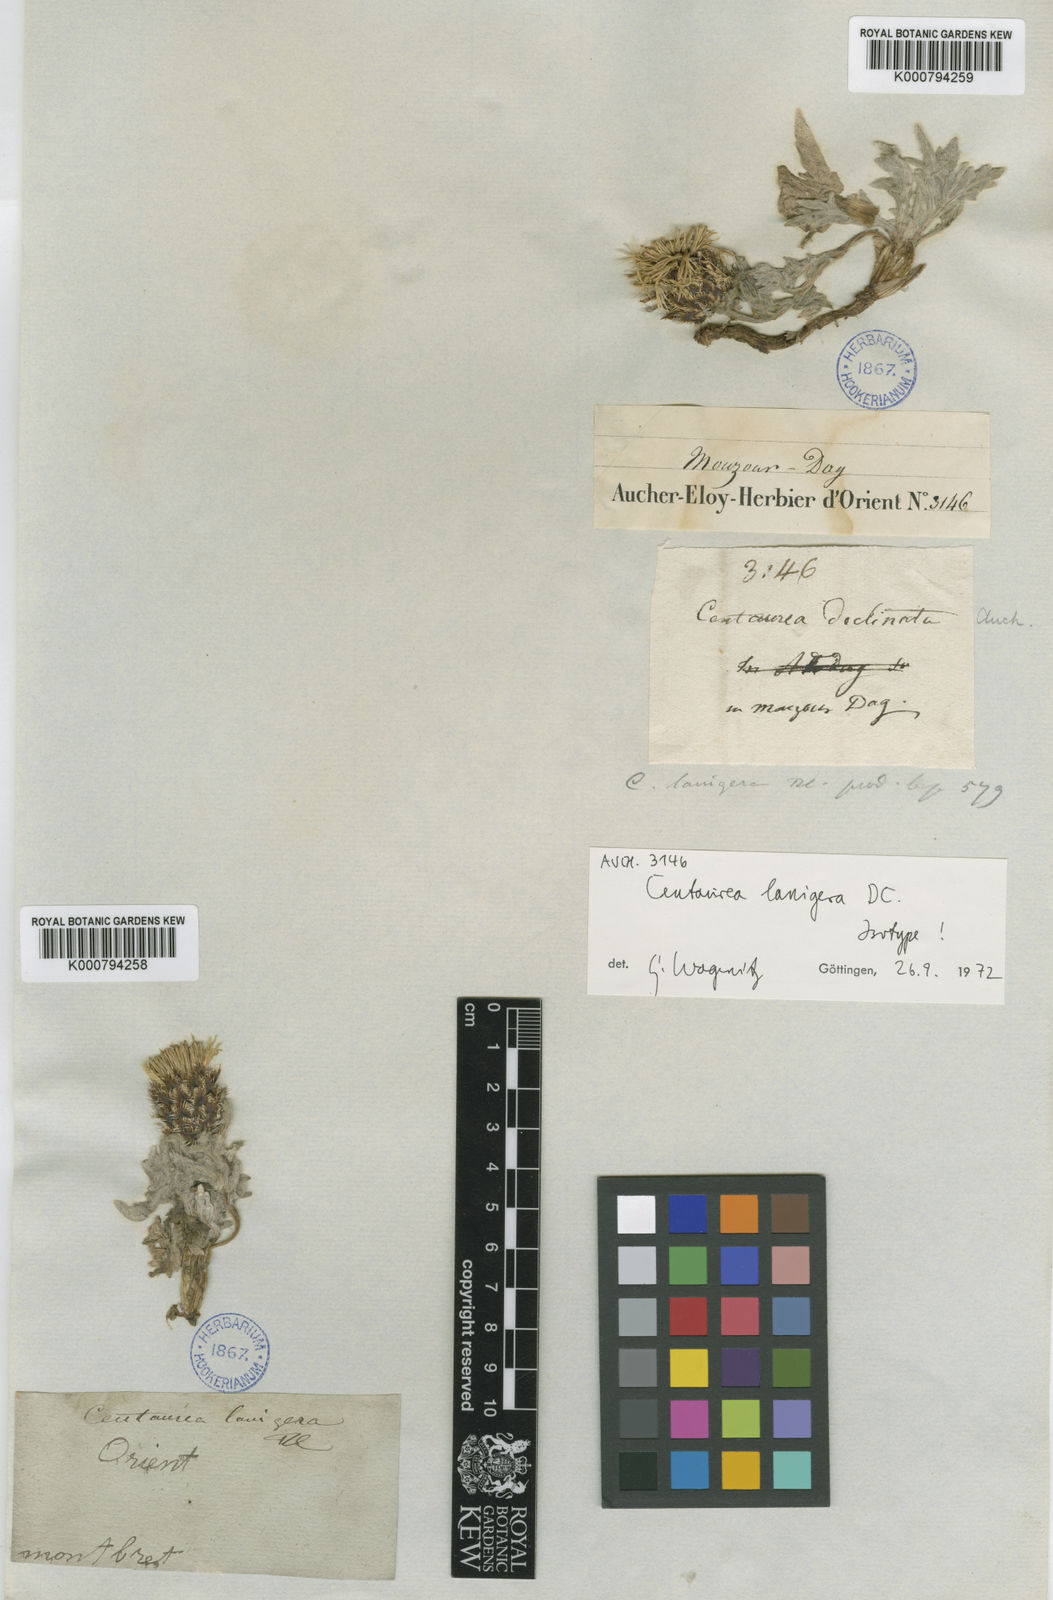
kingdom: Plantae
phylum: Tracheophyta
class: Magnoliopsida
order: Asterales
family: Asteraceae
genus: Centaurea
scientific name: Centaurea lanigera
